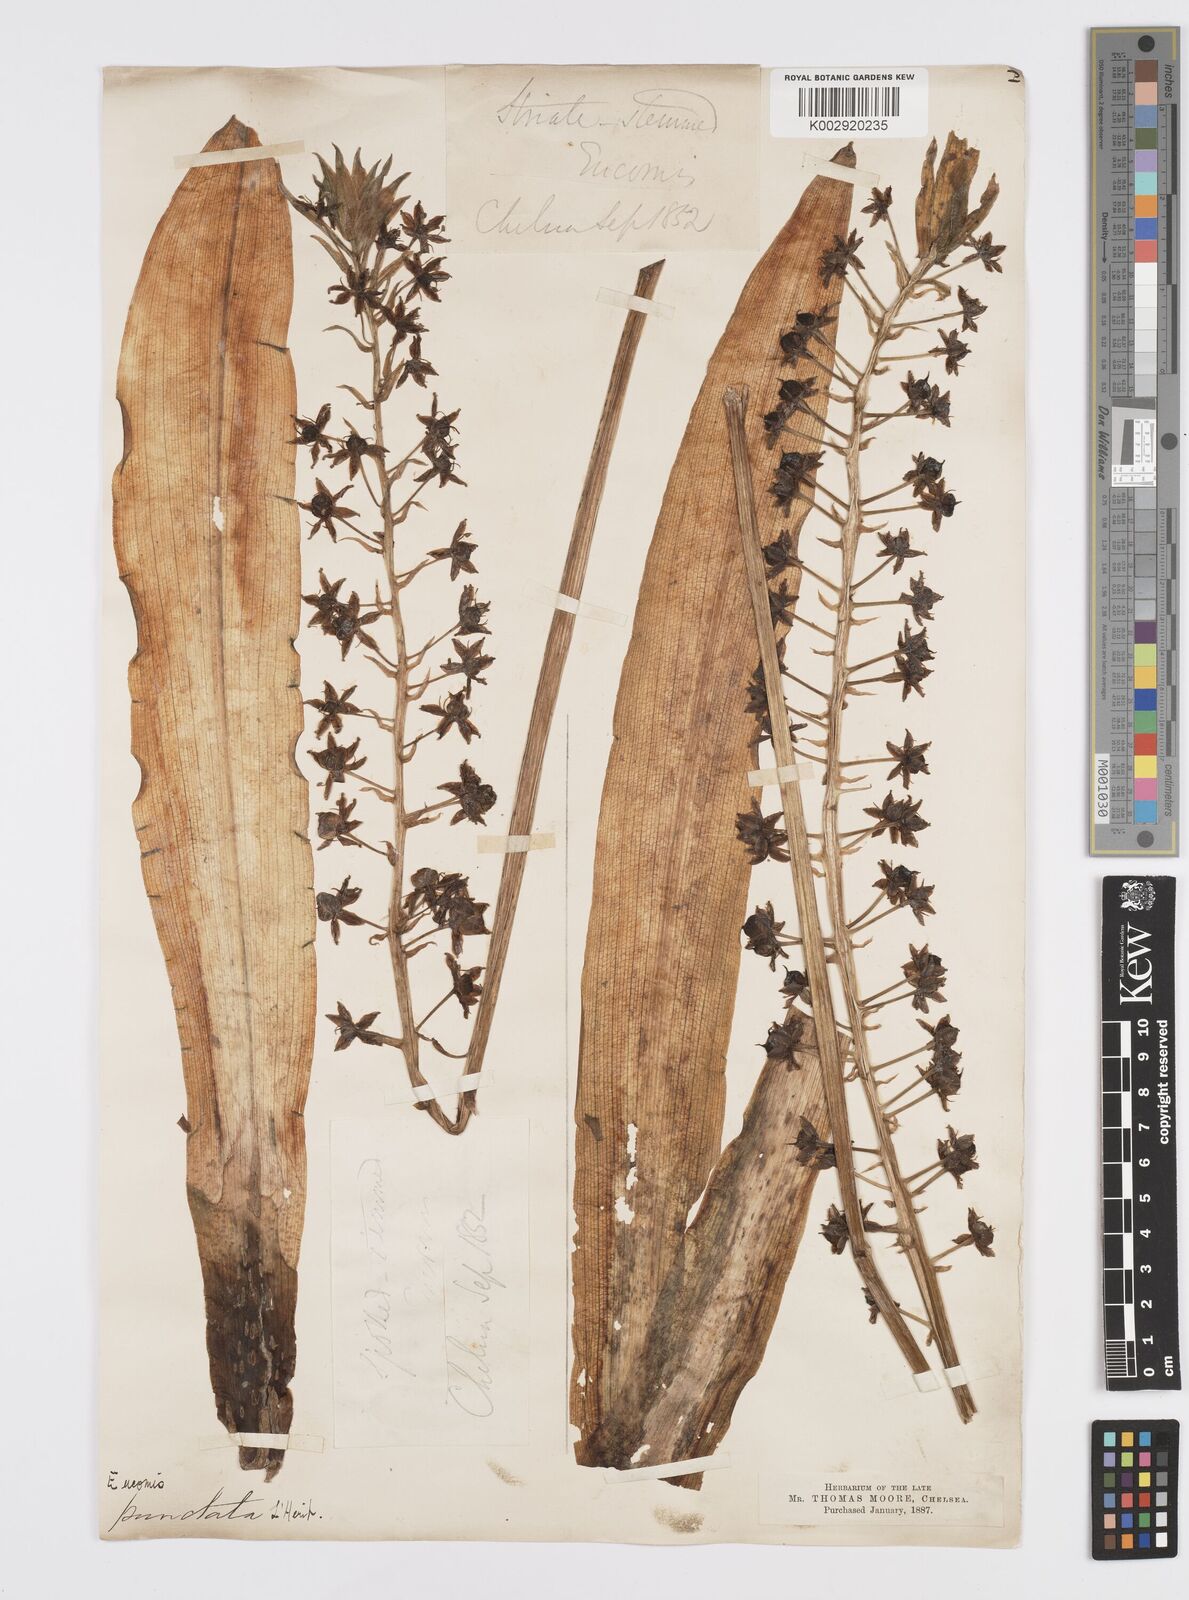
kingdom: Plantae
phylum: Tracheophyta
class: Liliopsida
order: Asparagales
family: Asparagaceae
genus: Eucomis
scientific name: Eucomis comosa
